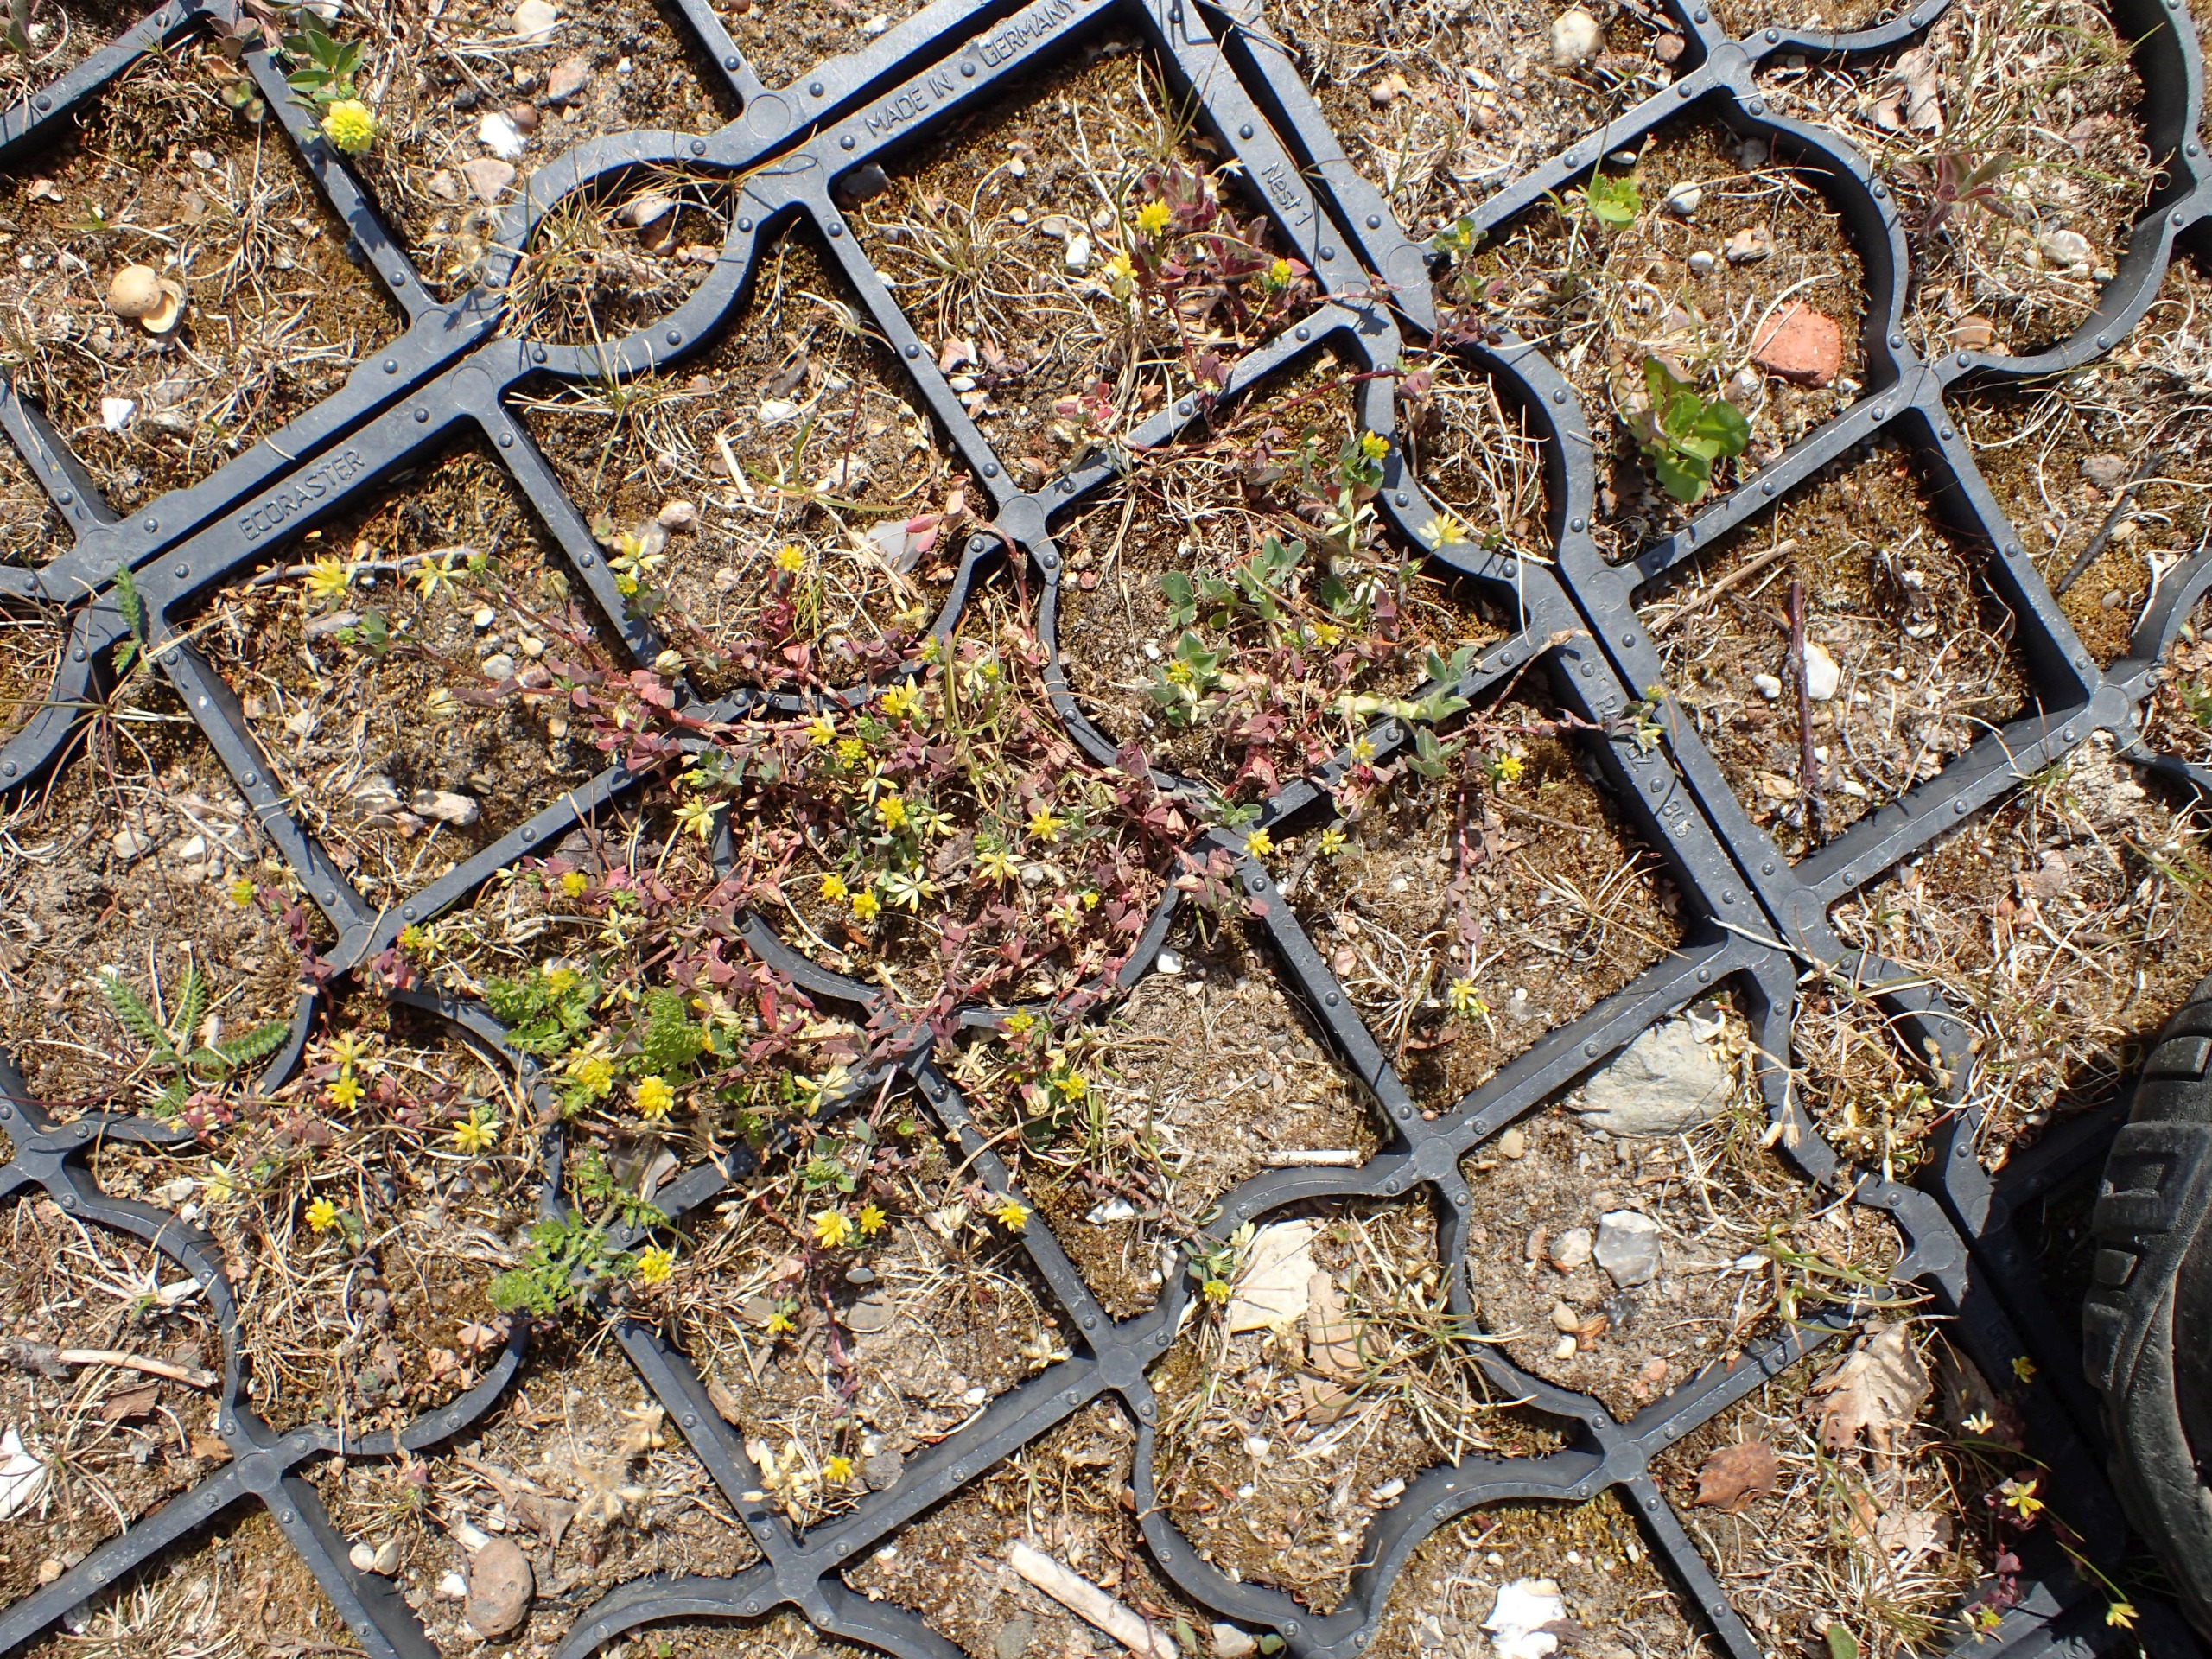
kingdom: Plantae
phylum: Tracheophyta
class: Magnoliopsida
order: Fabales
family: Fabaceae
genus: Trifolium
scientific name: Trifolium dubium
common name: Fin kløver
